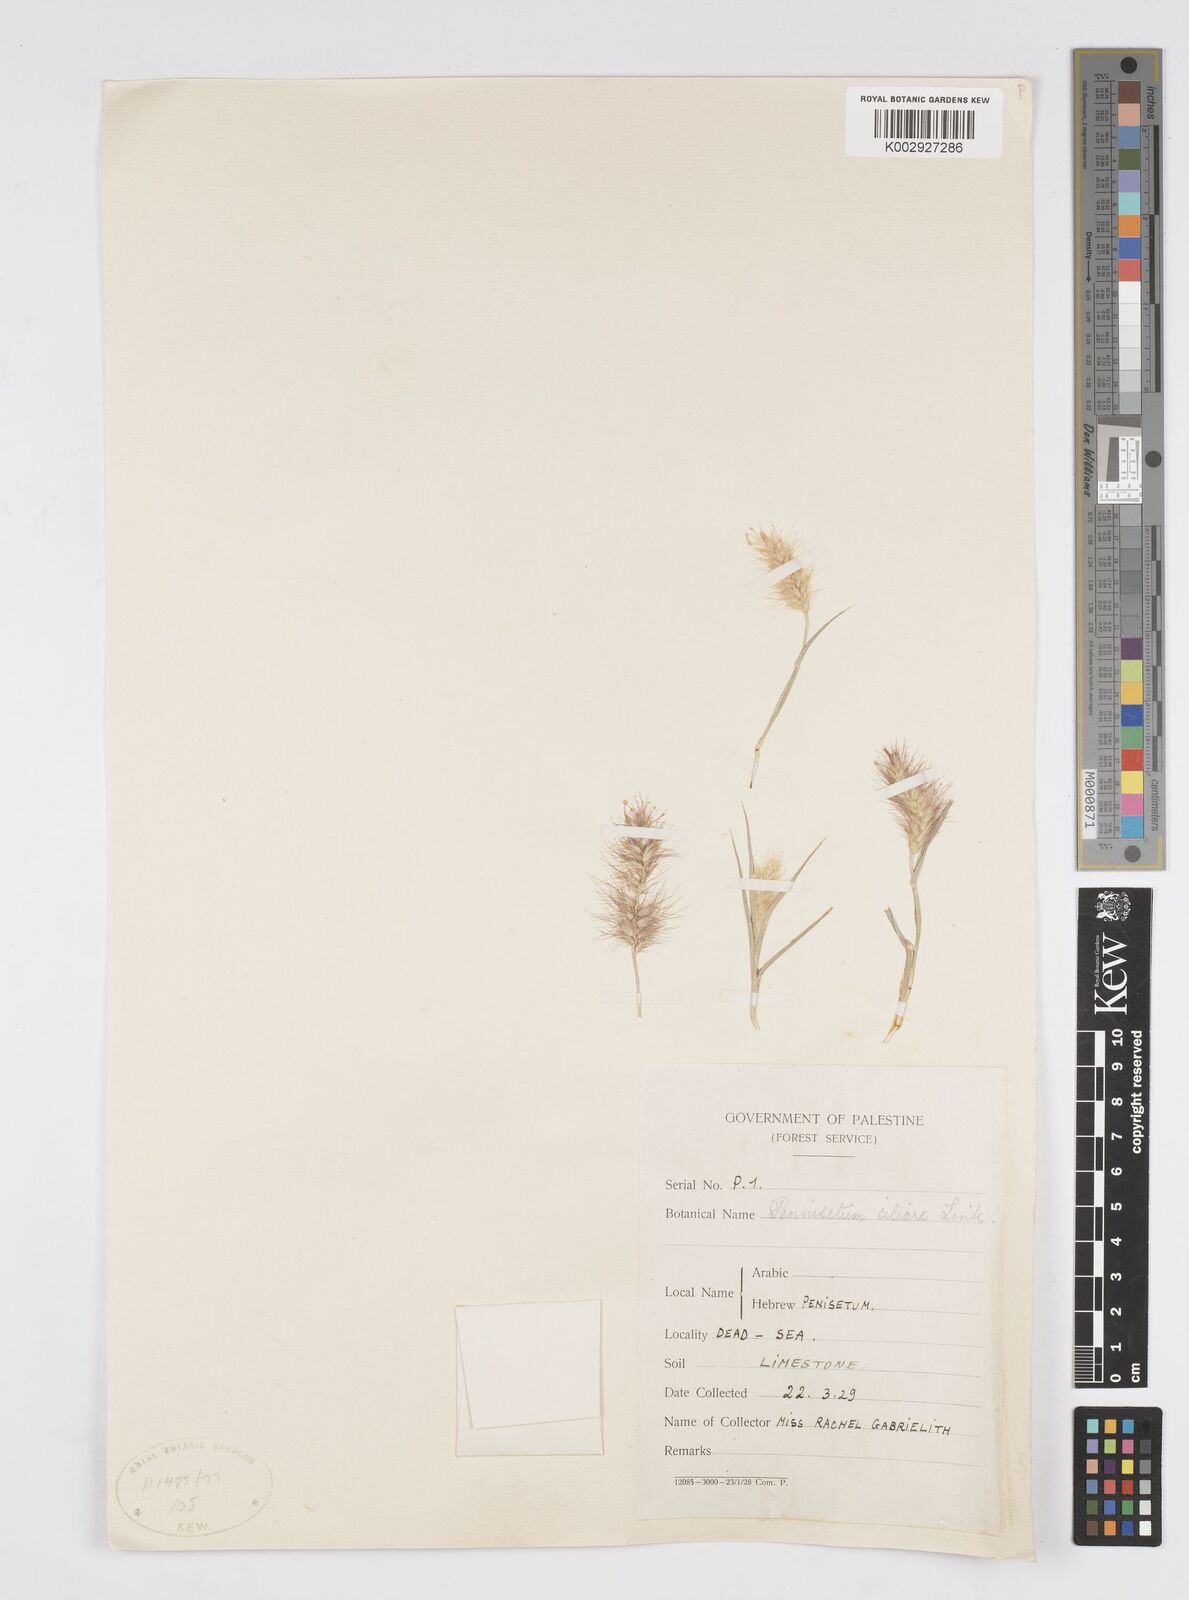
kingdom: Plantae
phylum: Tracheophyta
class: Liliopsida
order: Poales
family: Poaceae
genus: Cenchrus
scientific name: Cenchrus ciliaris
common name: Buffelgrass
